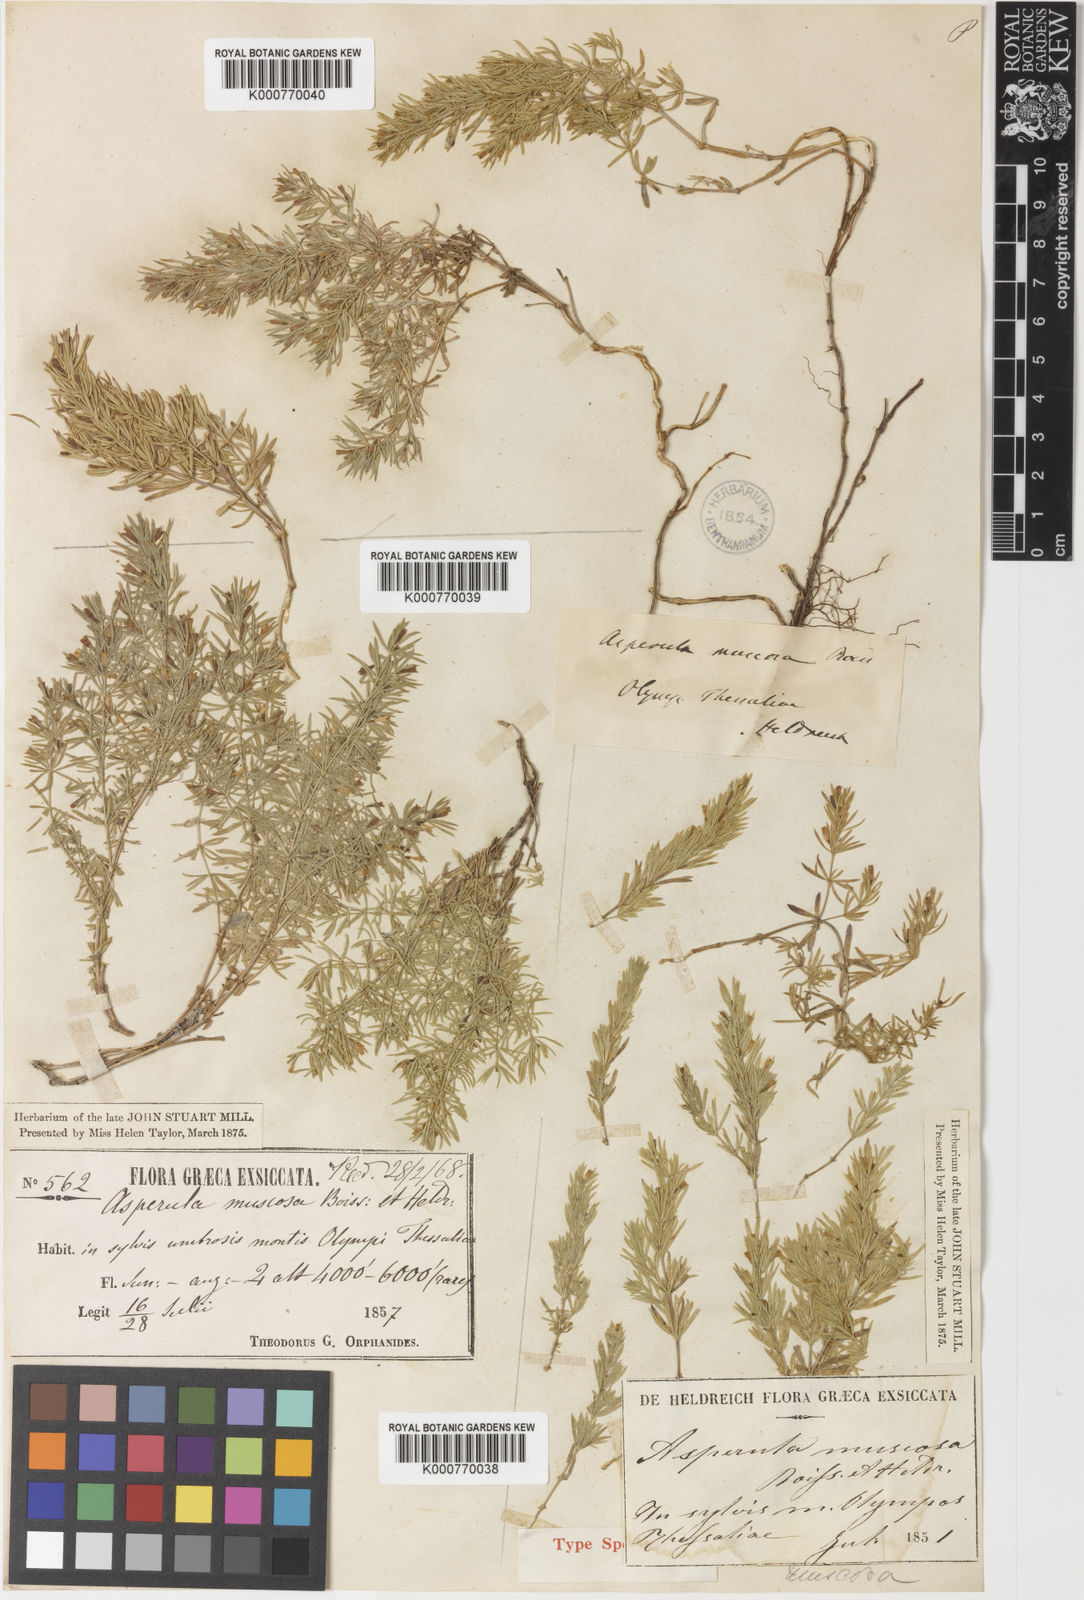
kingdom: Plantae
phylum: Tracheophyta
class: Magnoliopsida
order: Gentianales
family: Rubiaceae
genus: Thliphthisa
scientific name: Thliphthisa muscosa
